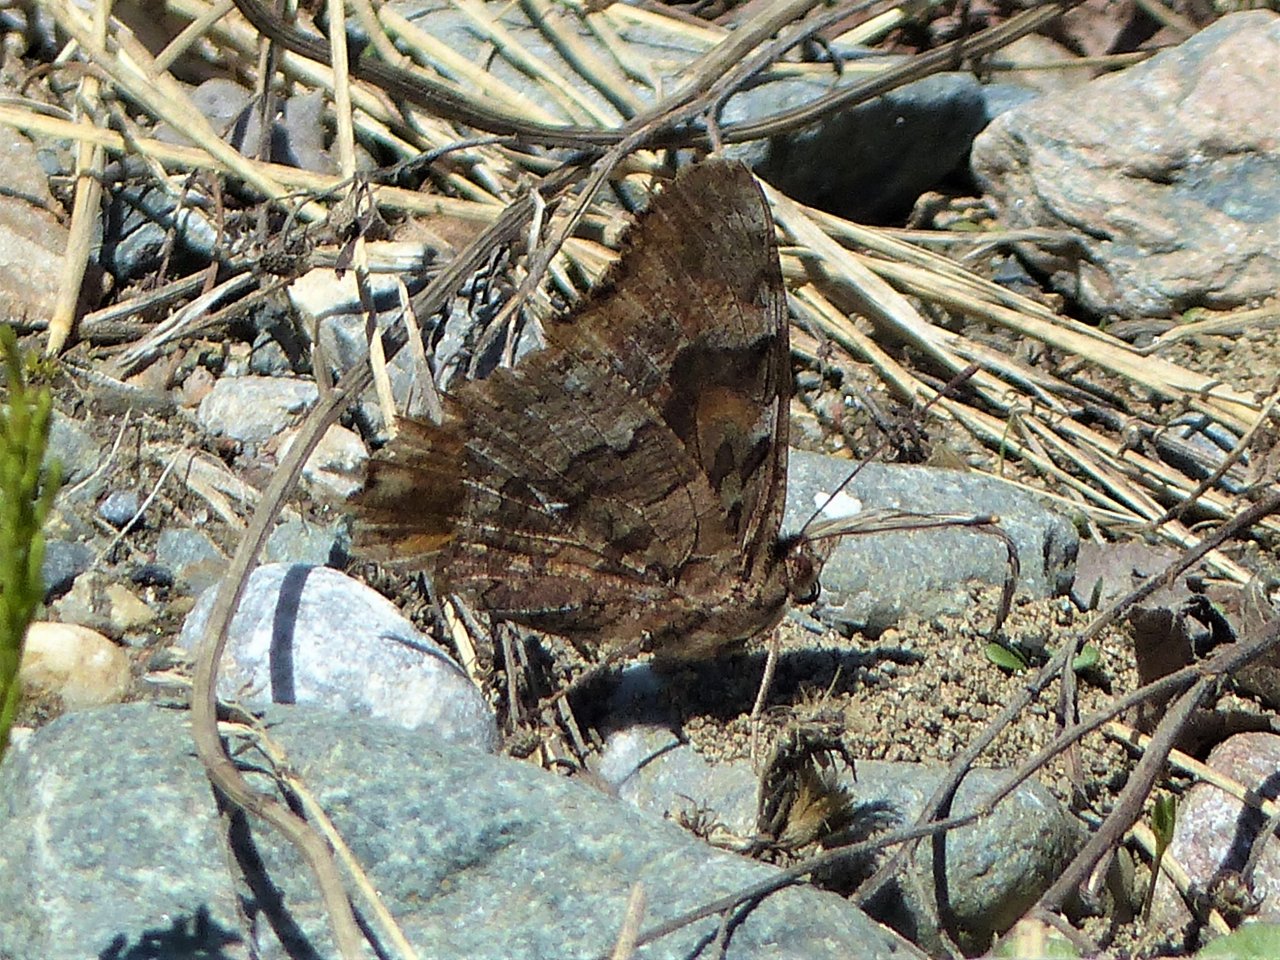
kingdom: Animalia
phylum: Arthropoda
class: Insecta
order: Lepidoptera
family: Nymphalidae
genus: Polygonia
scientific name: Polygonia vaualbum
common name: Compton Tortoiseshell
